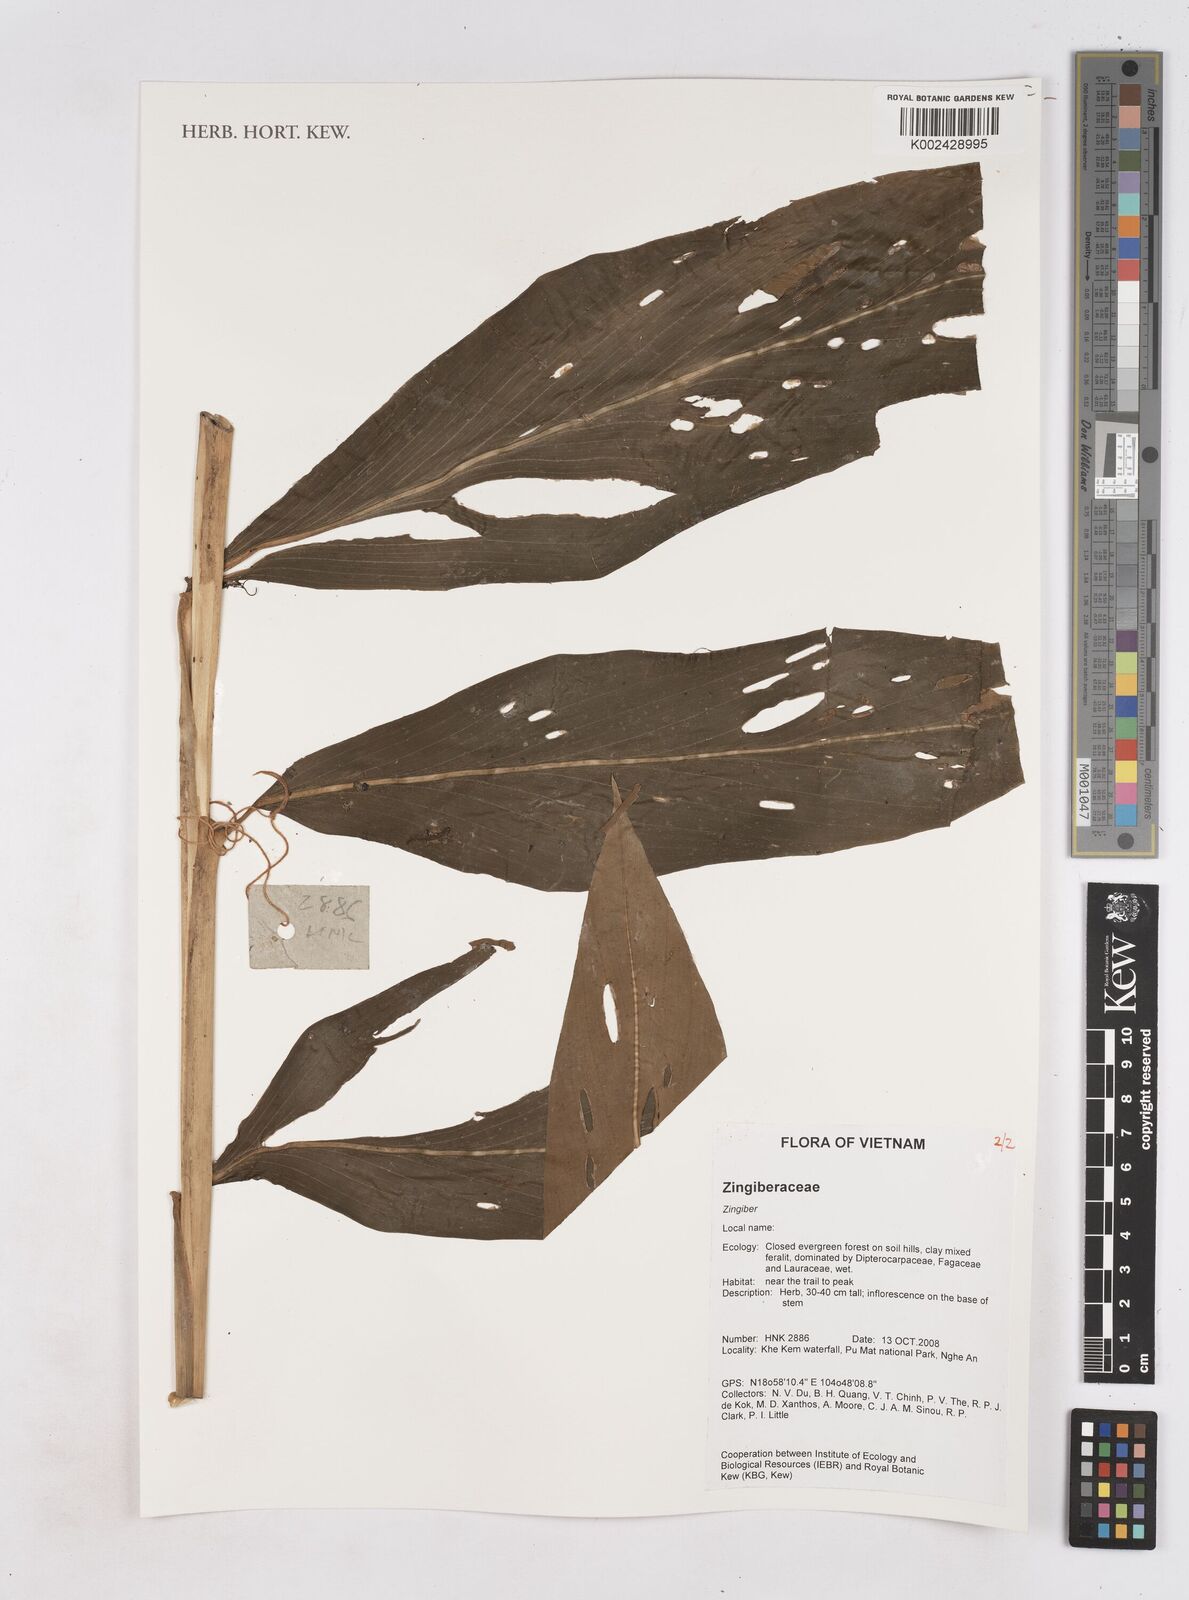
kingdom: Plantae
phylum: Tracheophyta
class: Liliopsida
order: Zingiberales
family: Zingiberaceae
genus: Zingiber
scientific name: Zingiber
